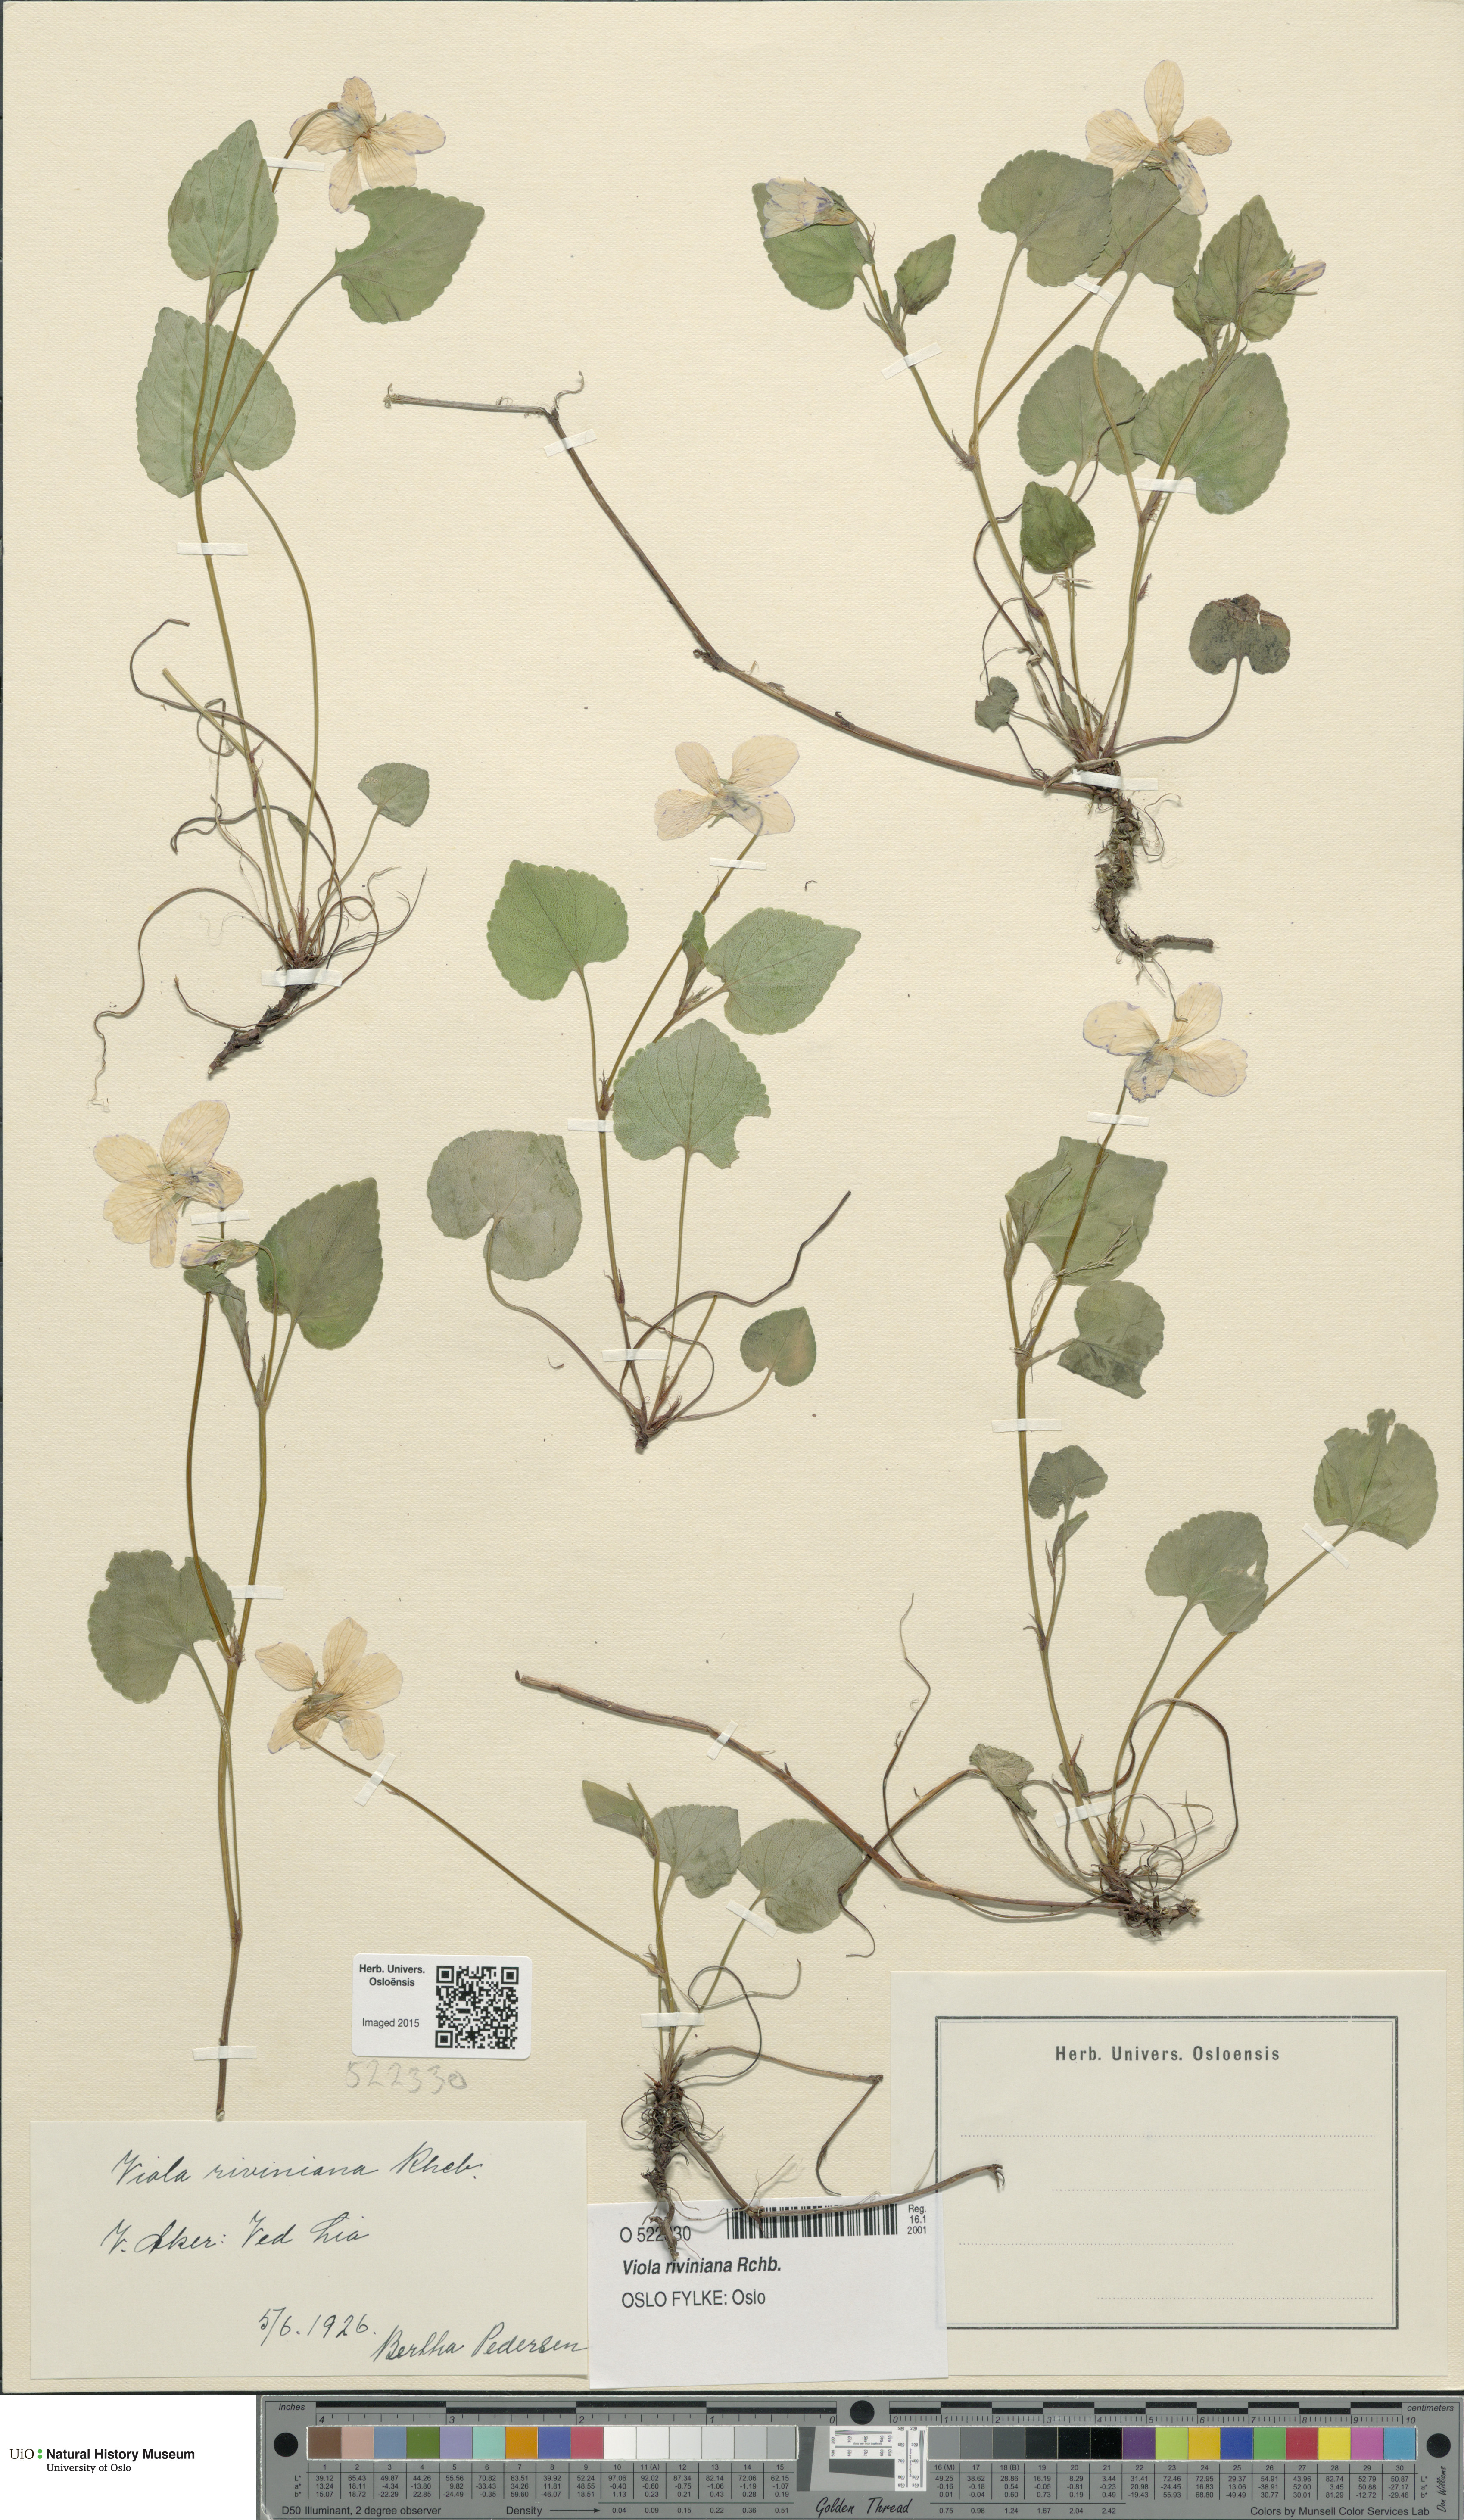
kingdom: Plantae
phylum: Tracheophyta
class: Magnoliopsida
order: Malpighiales
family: Violaceae
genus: Viola
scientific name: Viola riviniana
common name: Common dog-violet
